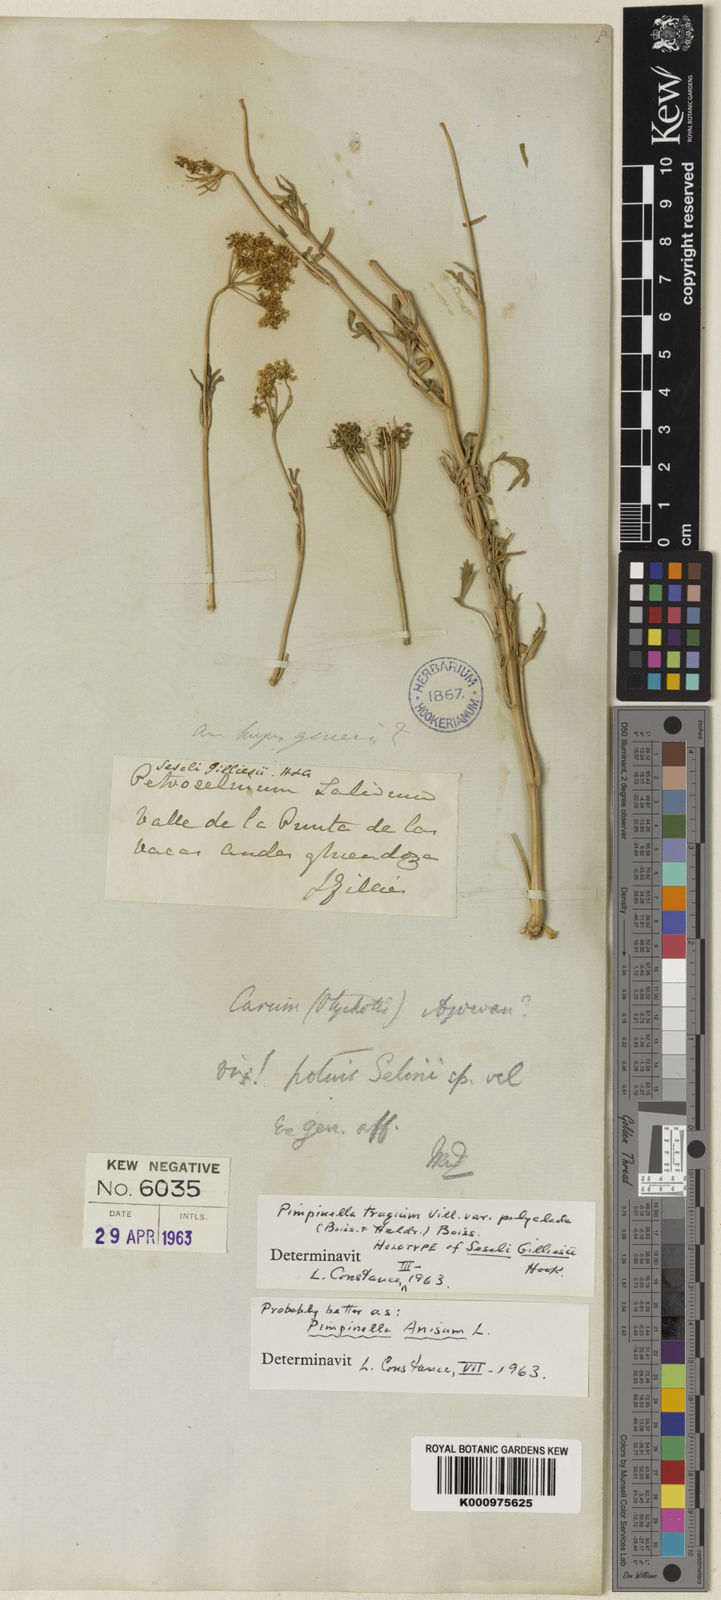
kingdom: Plantae
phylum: Tracheophyta
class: Magnoliopsida
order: Apiales
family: Apiaceae
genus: Pimpinella
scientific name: Pimpinella tragium
